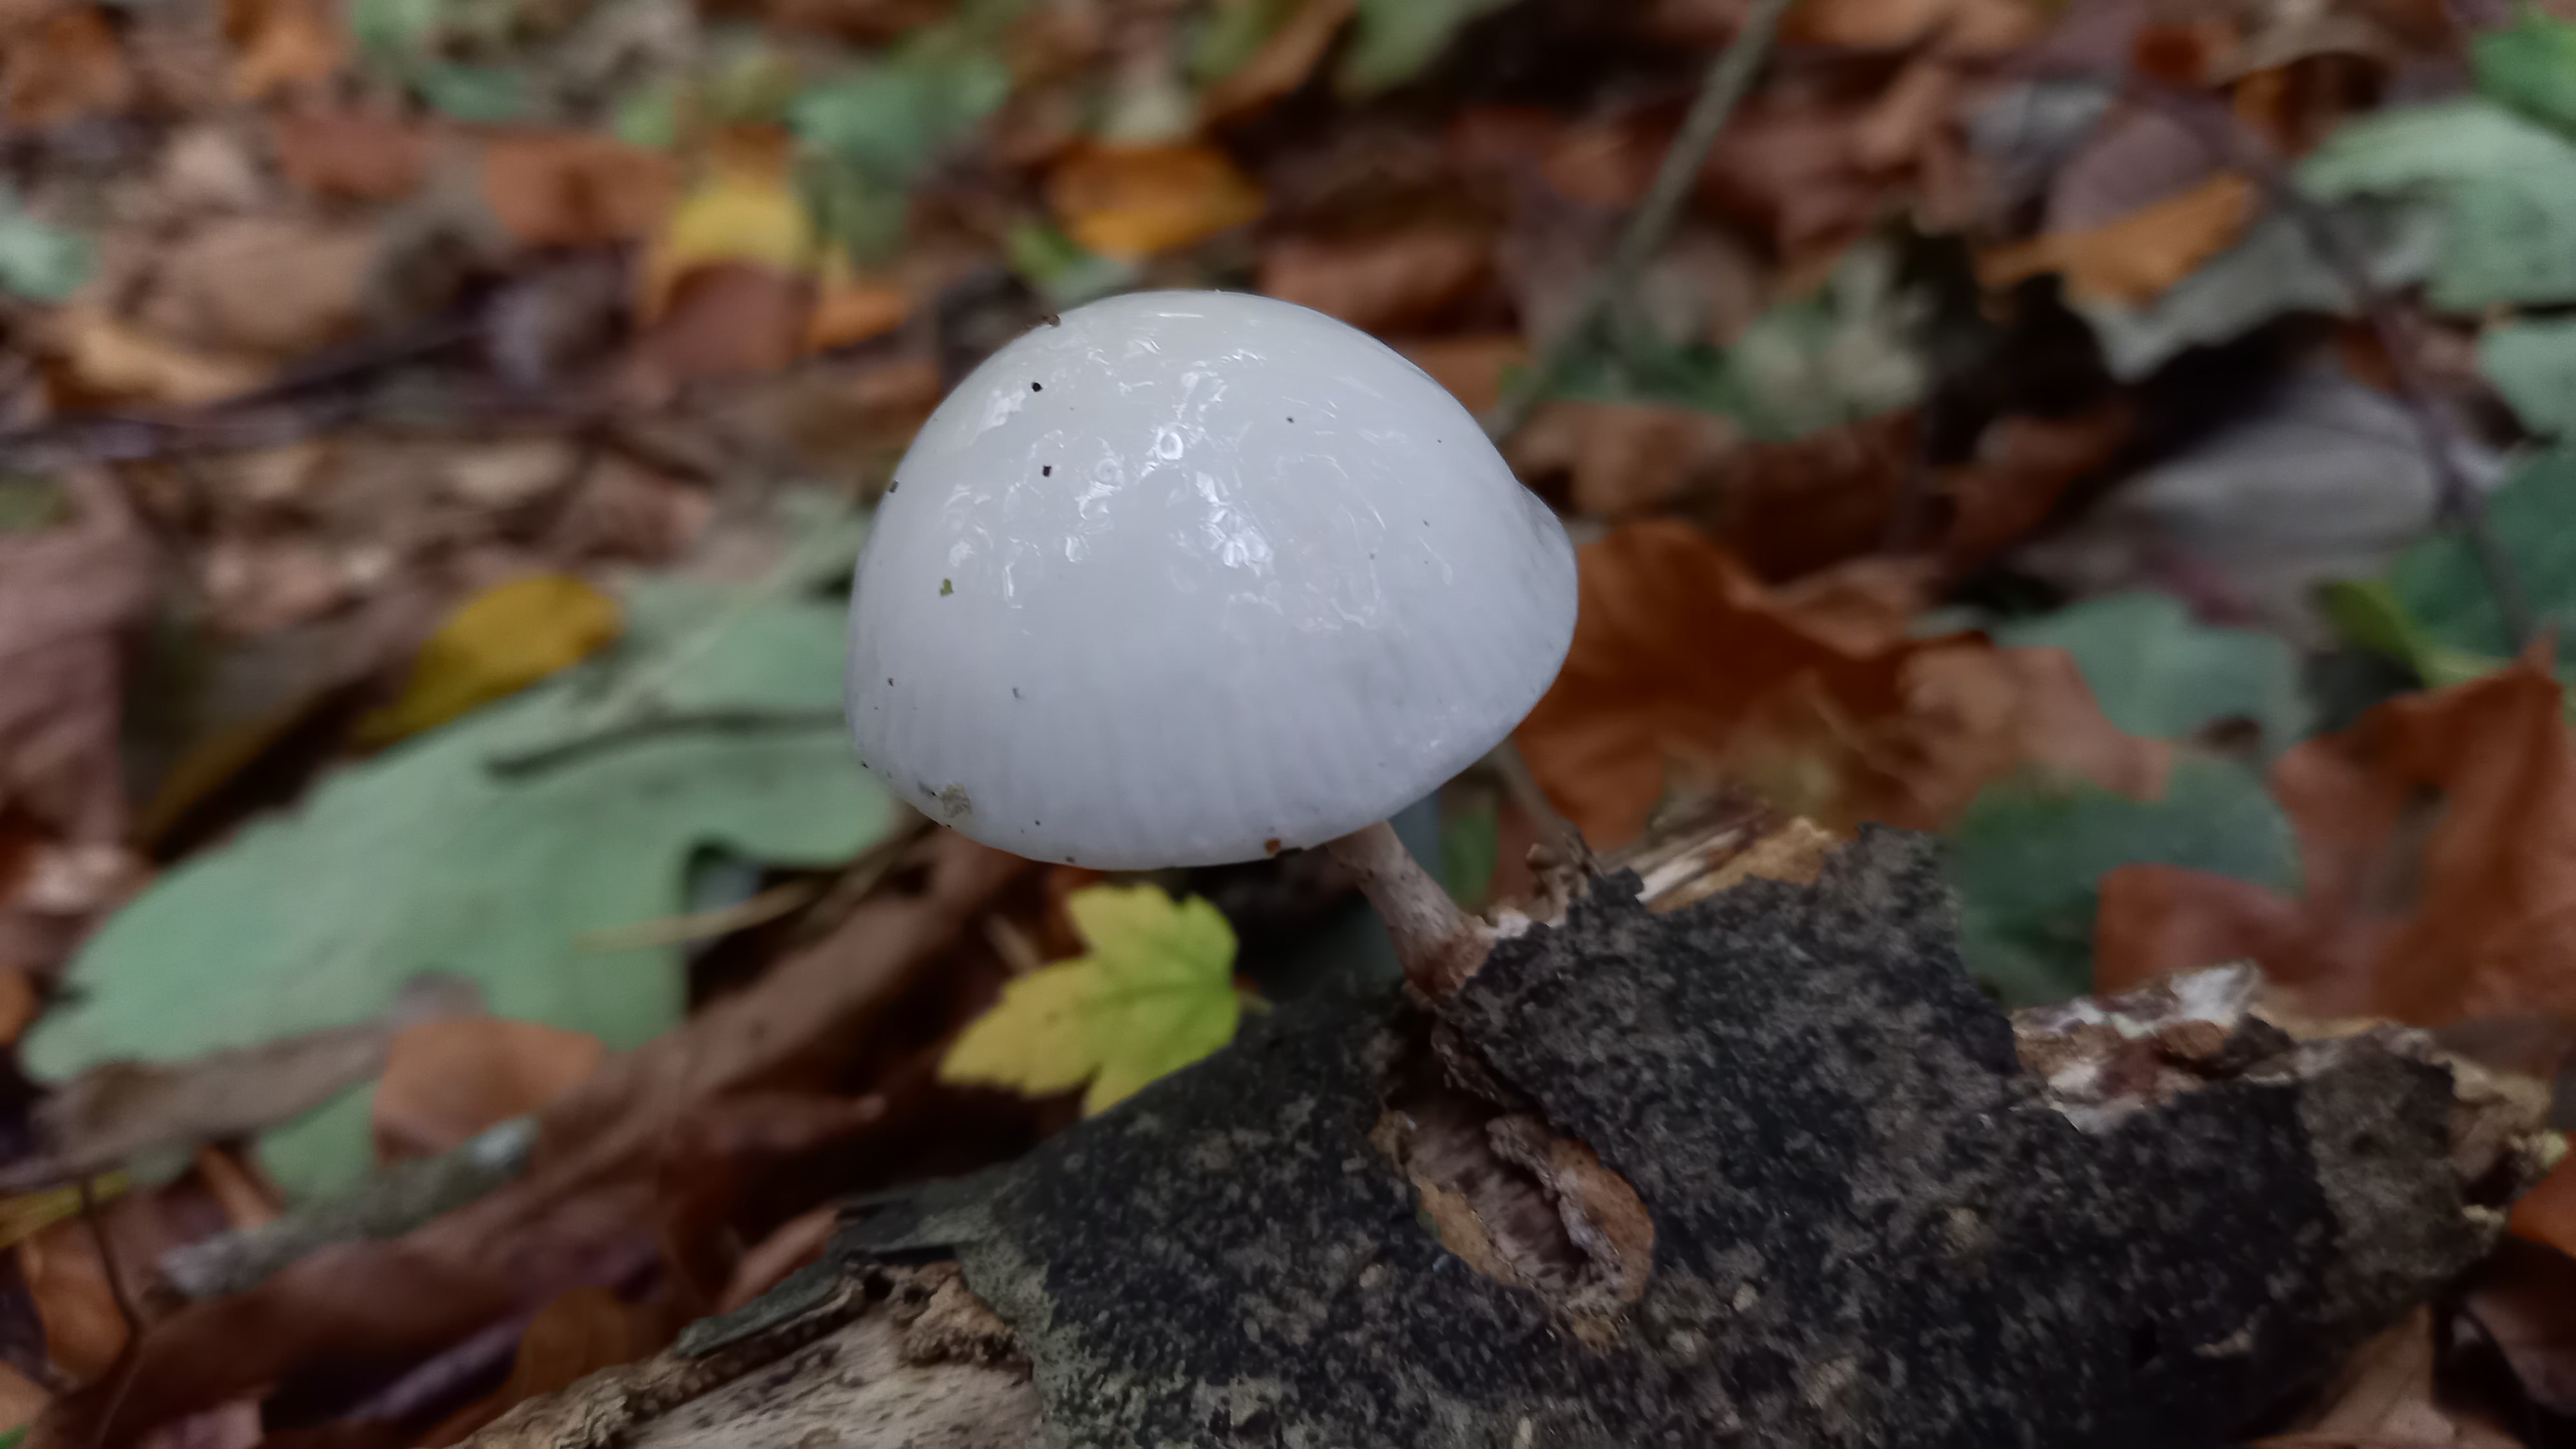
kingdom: Fungi
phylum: Basidiomycota
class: Agaricomycetes
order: Agaricales
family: Physalacriaceae
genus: Mucidula
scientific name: Mucidula mucida
